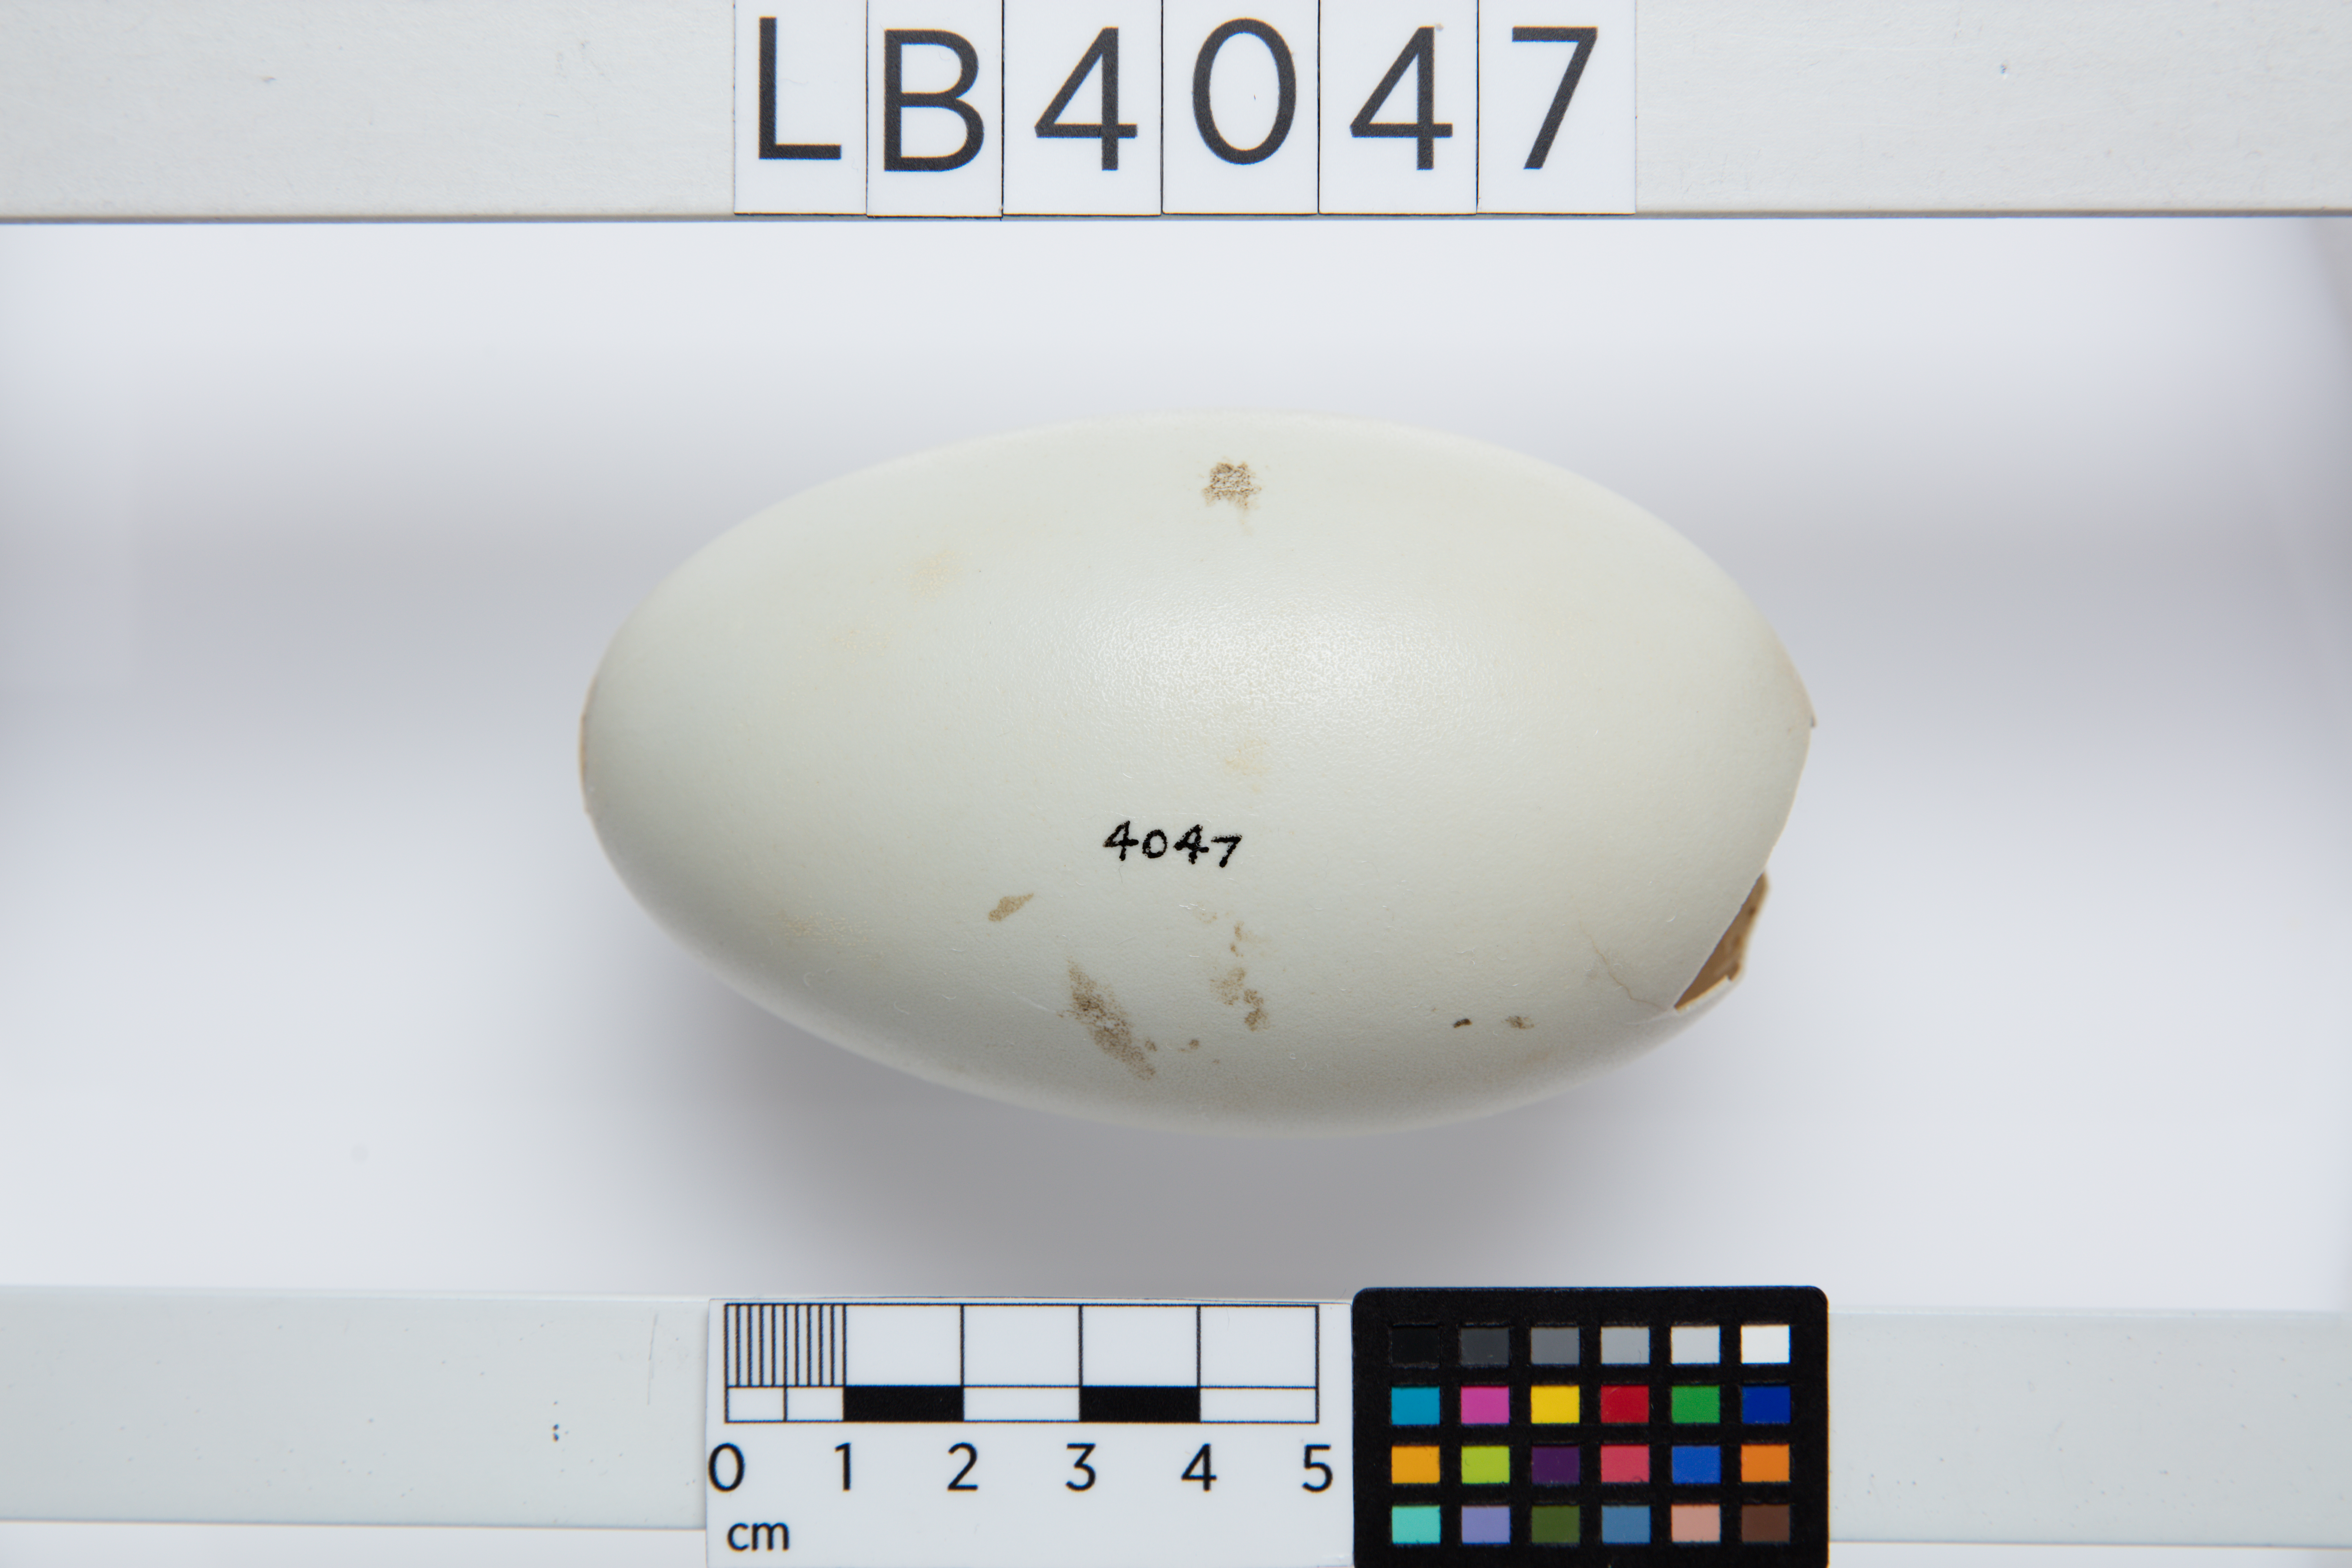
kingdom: Animalia
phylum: Chordata
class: Aves
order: Apterygiformes
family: Apterygidae
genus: Apteryx
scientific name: Apteryx
